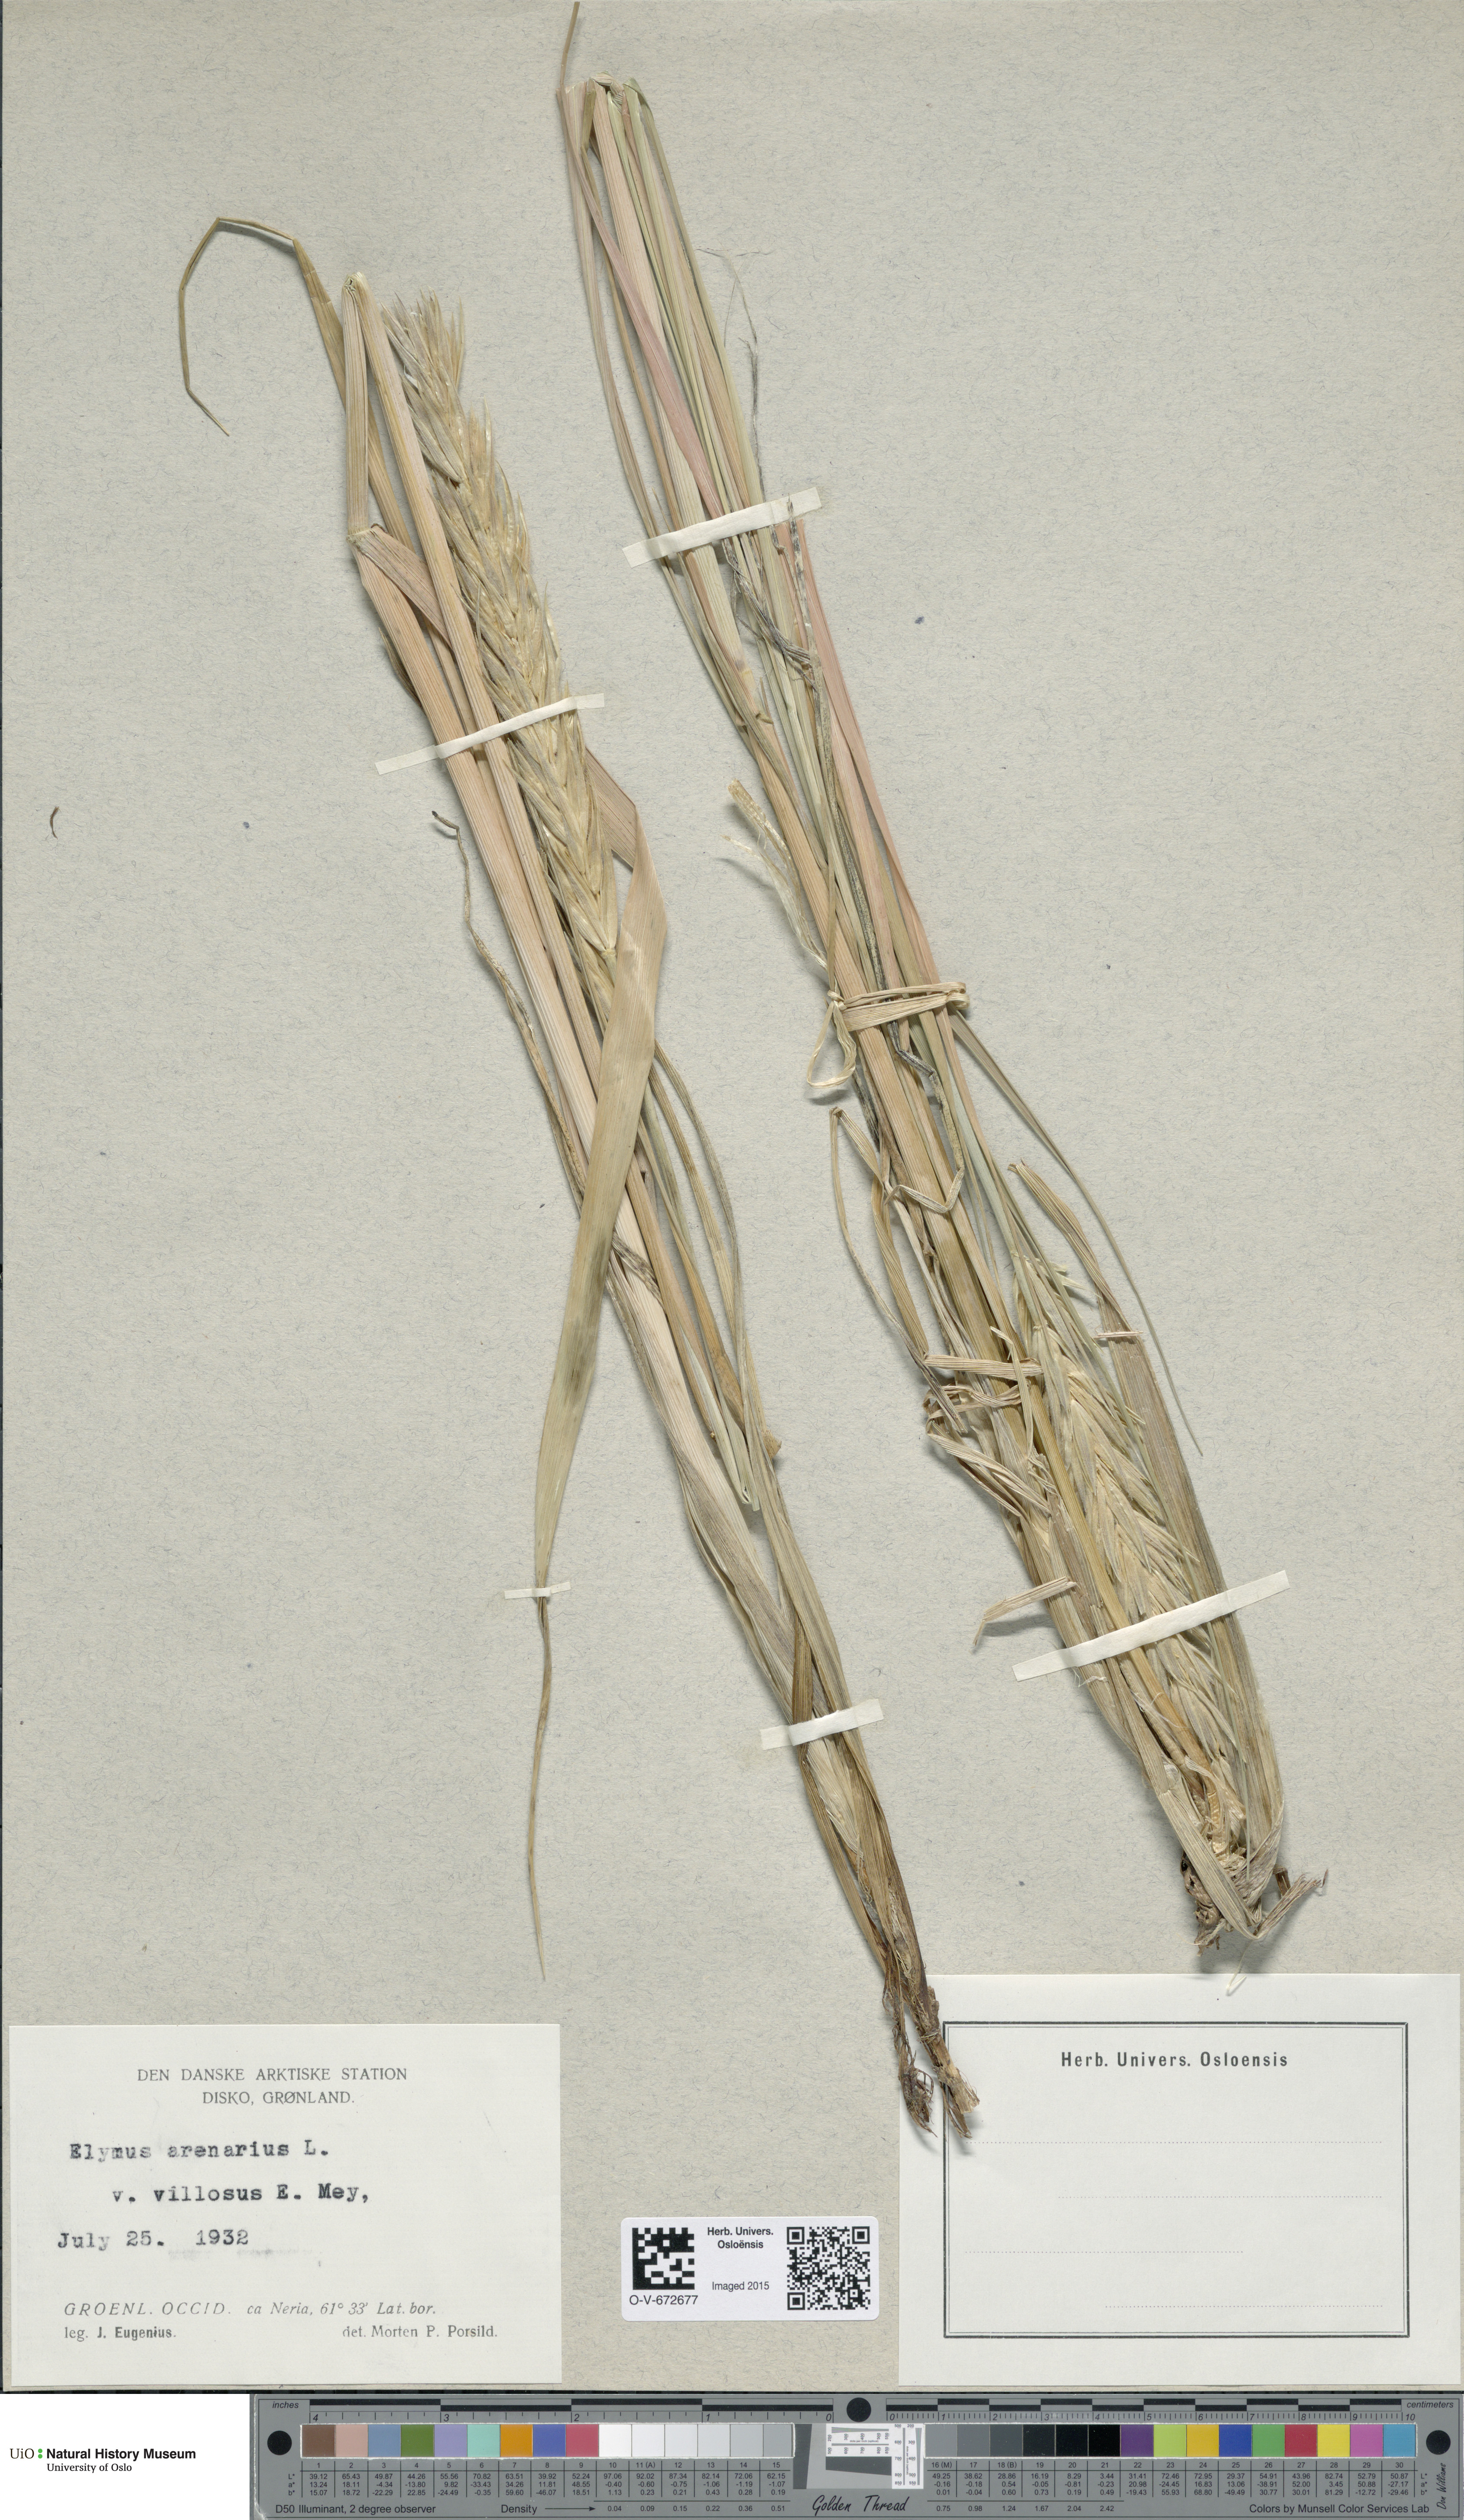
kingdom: Plantae
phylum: Tracheophyta
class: Liliopsida
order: Poales
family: Poaceae
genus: Leymus
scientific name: Leymus arenarius
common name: Lyme-grass
